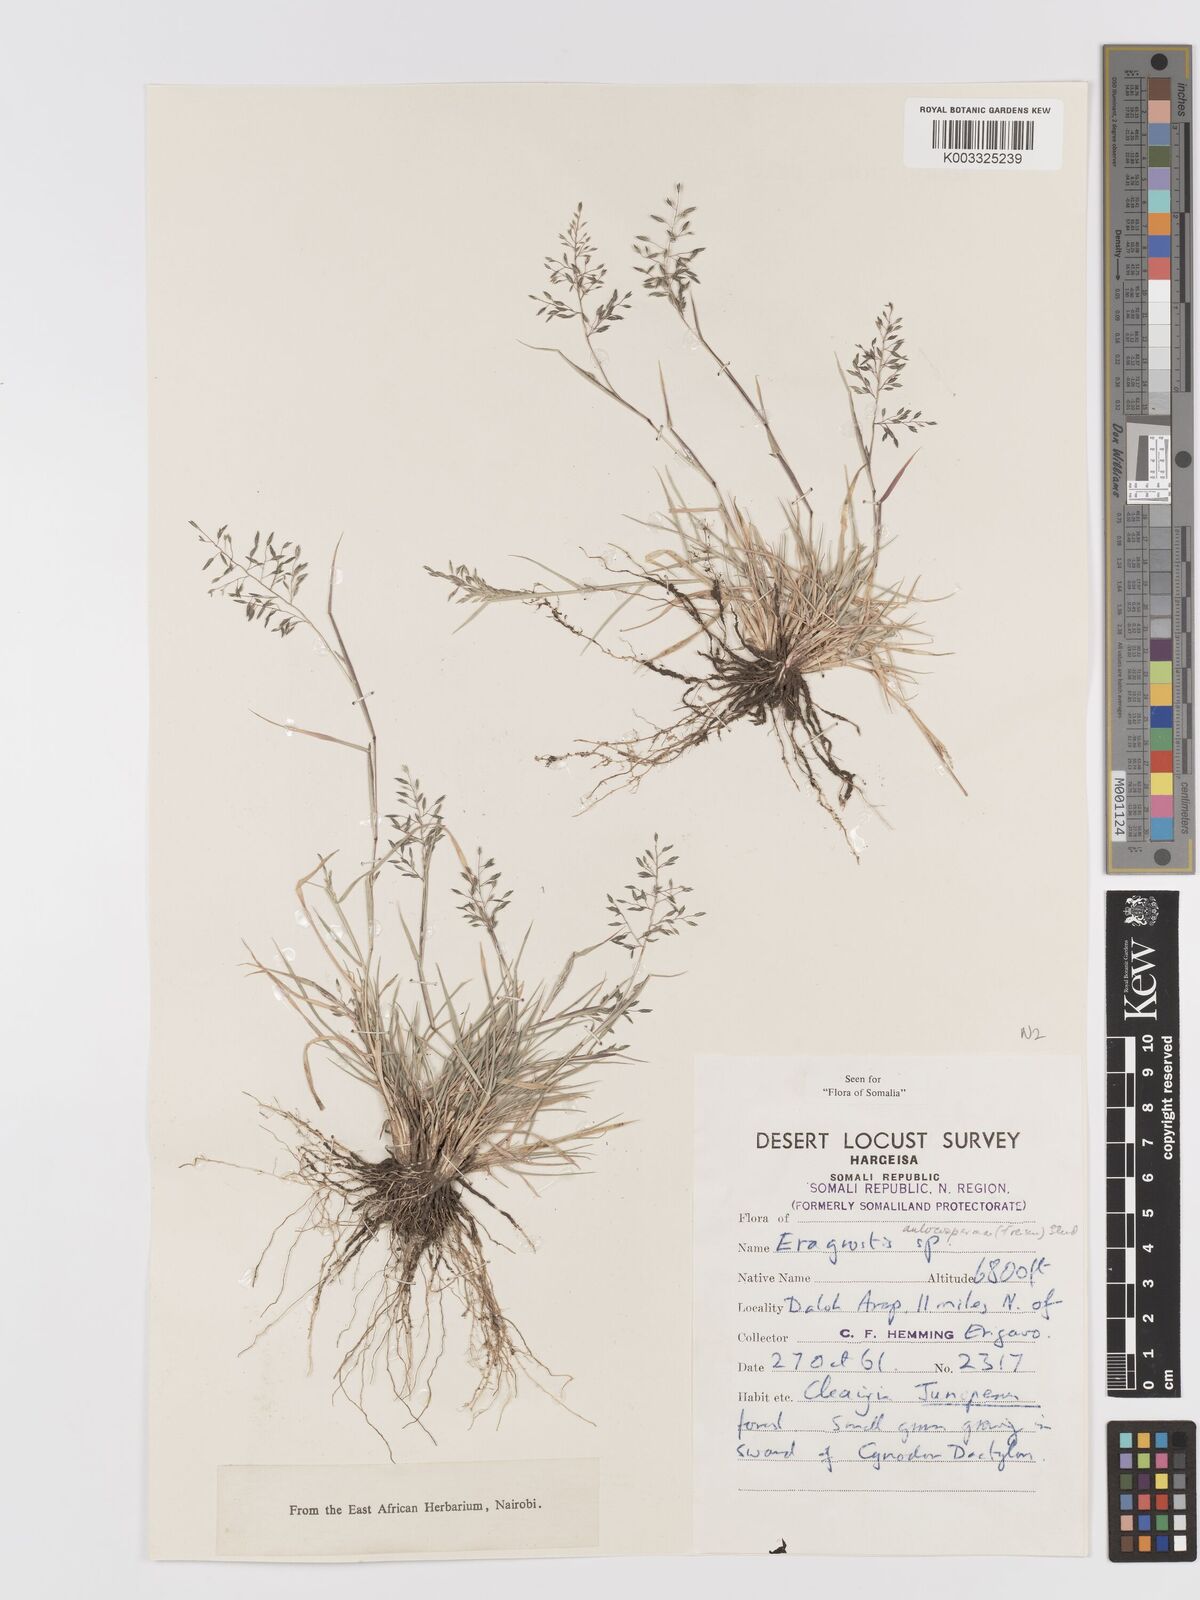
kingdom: Plantae
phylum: Tracheophyta
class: Liliopsida
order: Poales
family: Poaceae
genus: Eragrostis
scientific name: Eragrostis papposa
